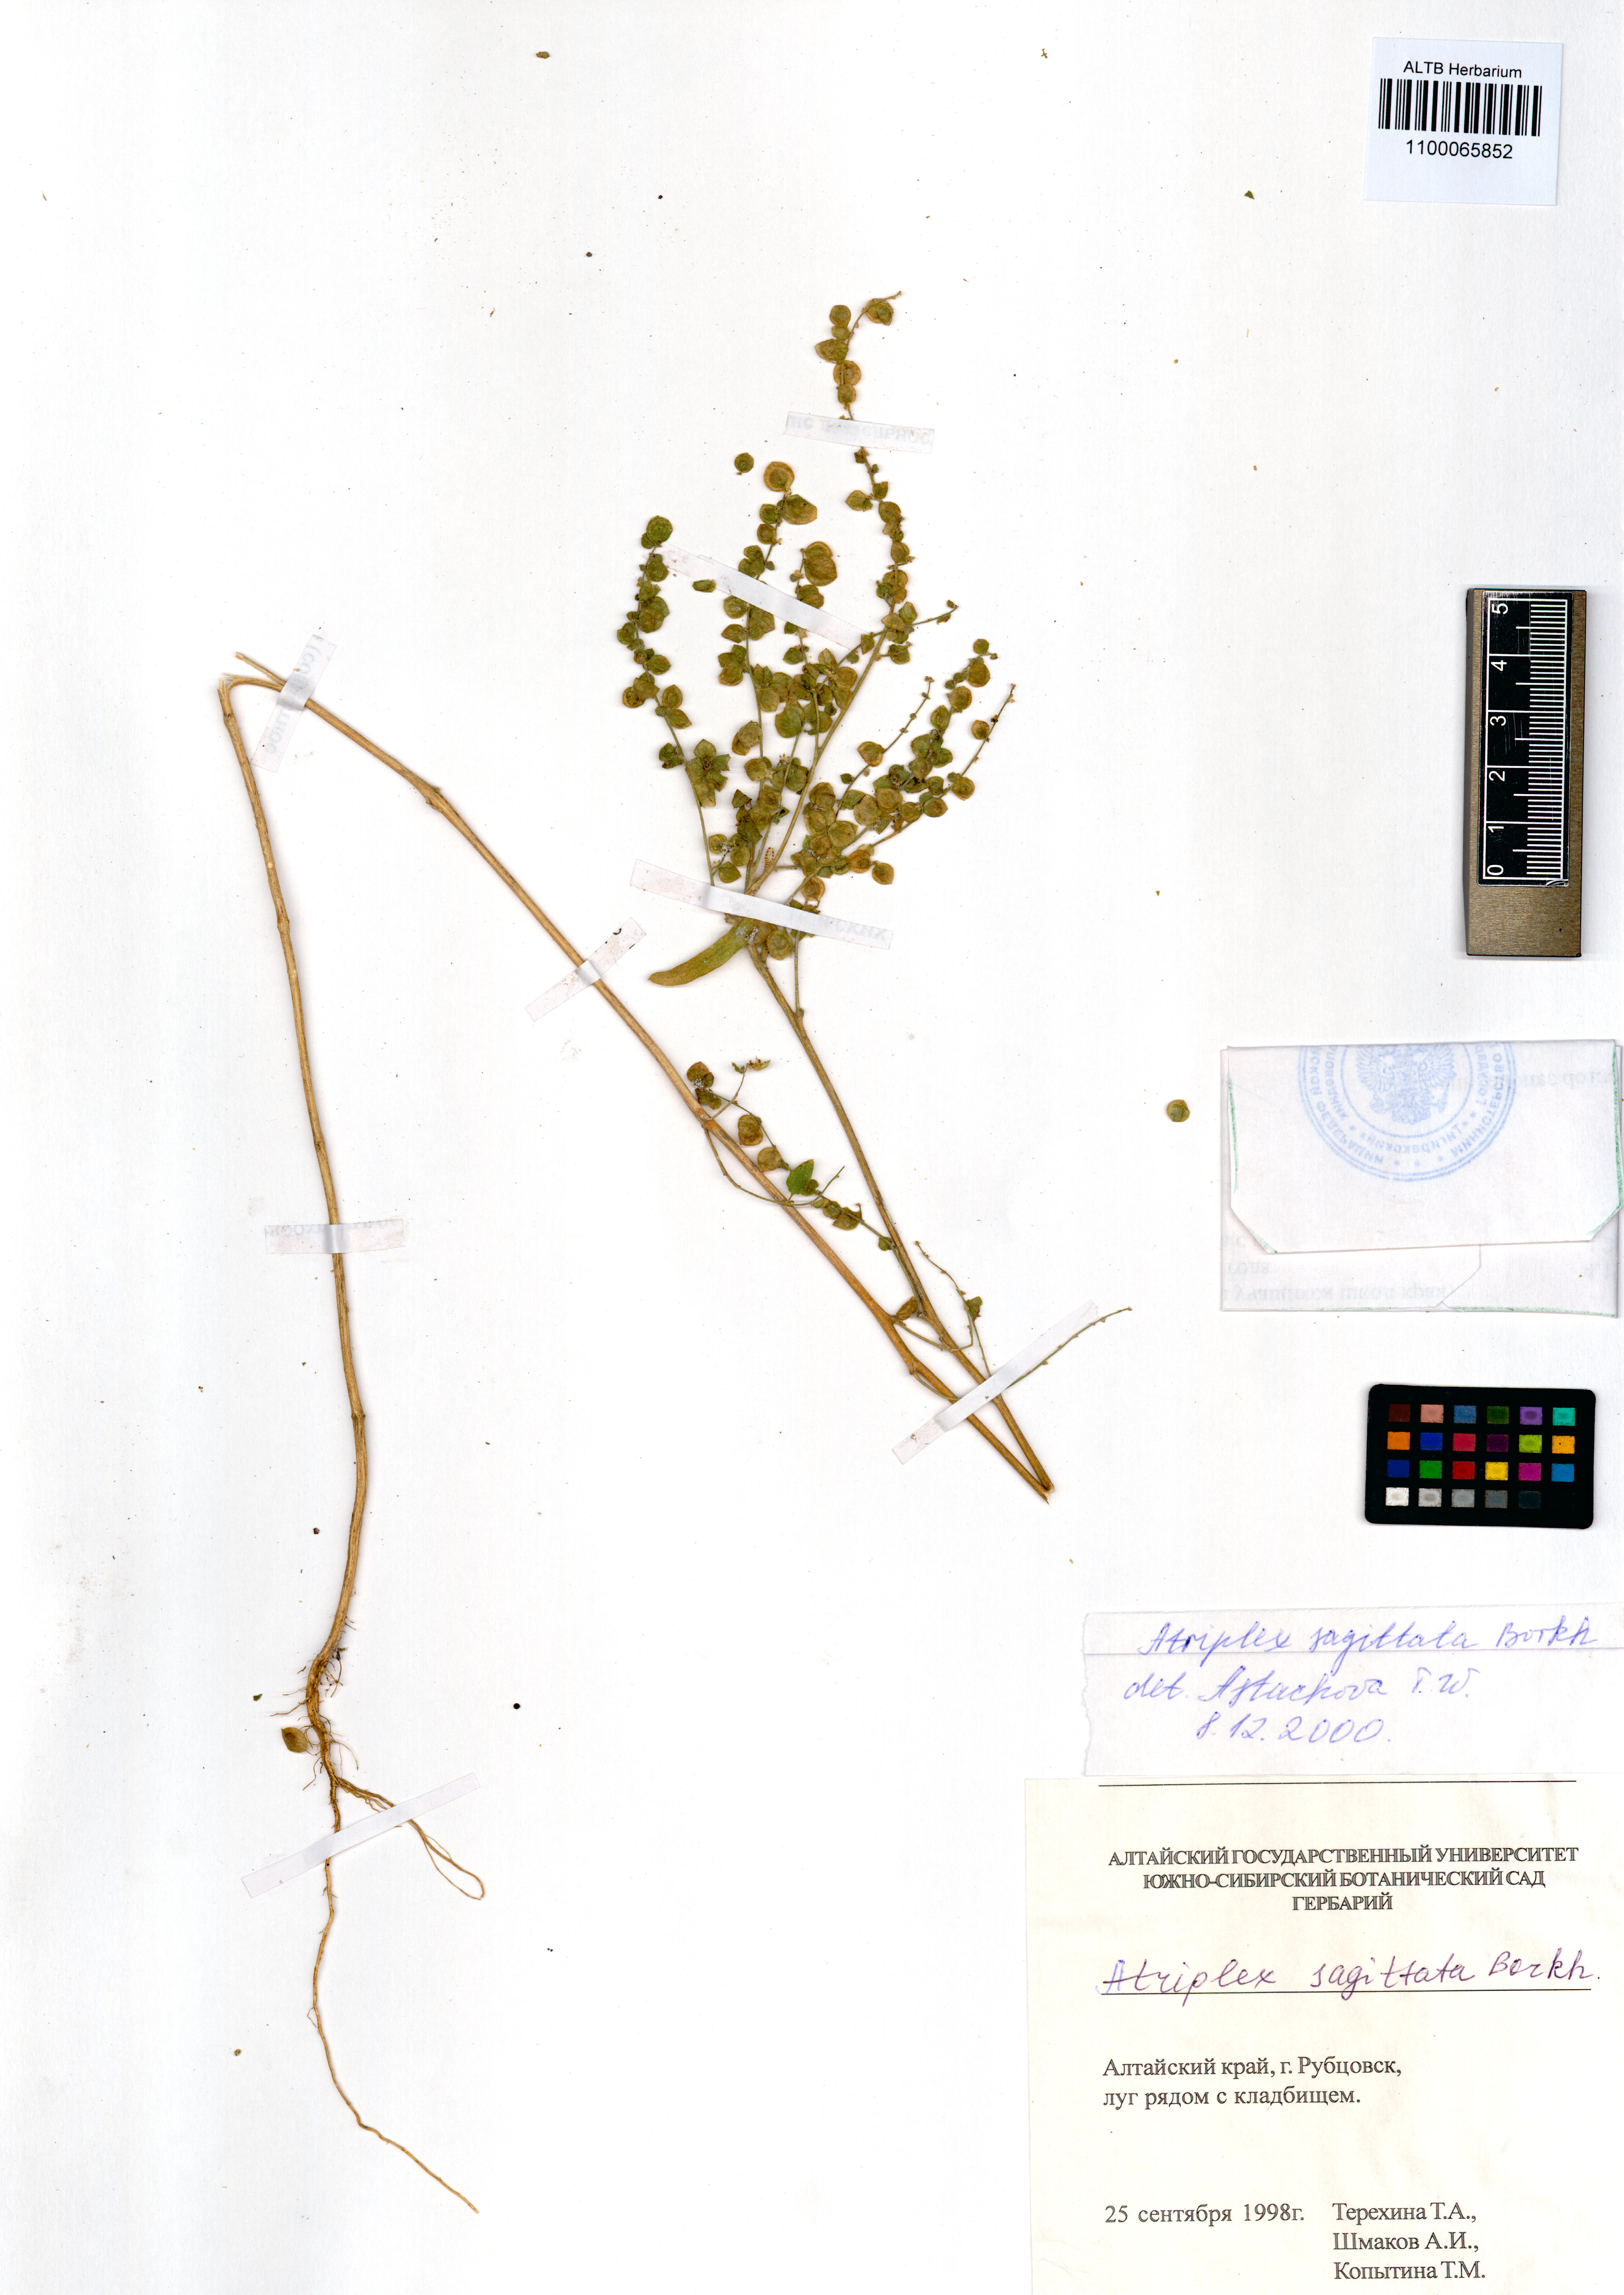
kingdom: Plantae
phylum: Tracheophyta
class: Magnoliopsida
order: Caryophyllales
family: Amaranthaceae
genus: Atriplex
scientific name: Atriplex sagittata
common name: Purple orache
